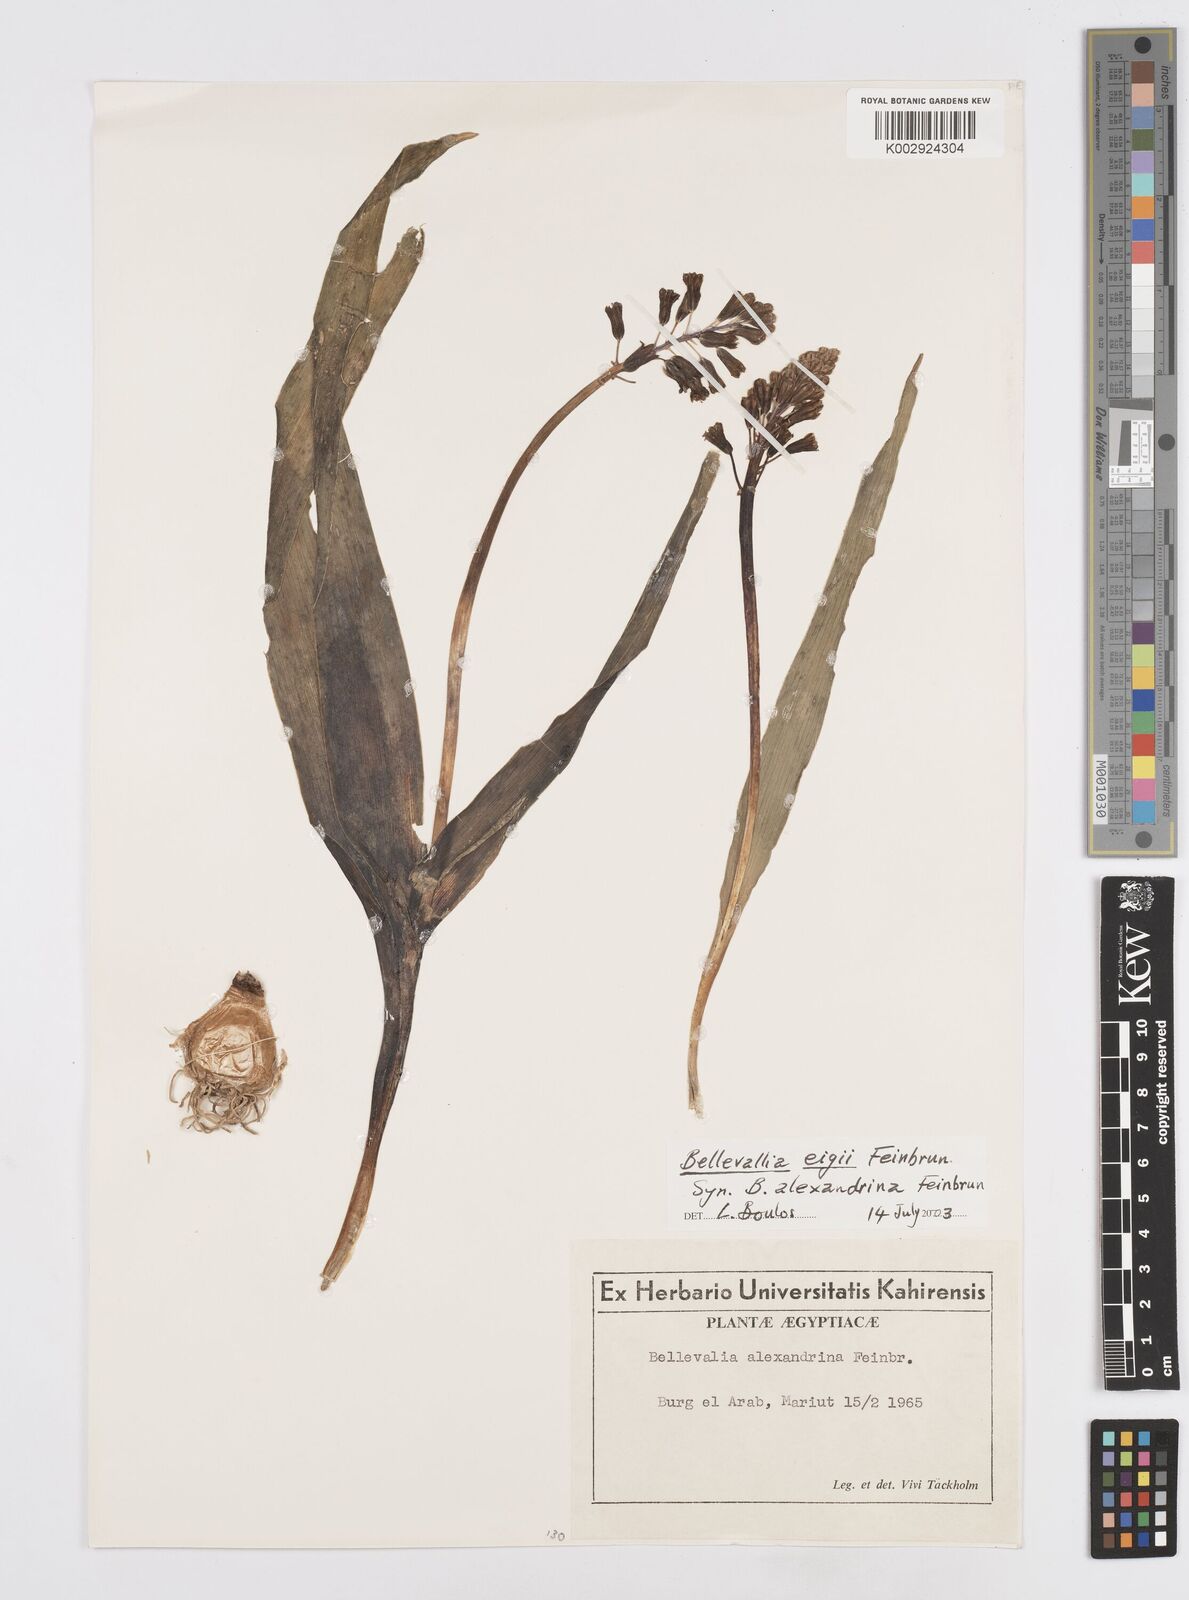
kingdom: Plantae
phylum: Tracheophyta
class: Liliopsida
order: Asparagales
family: Asparagaceae
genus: Bellevalia
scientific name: Bellevalia eigii
